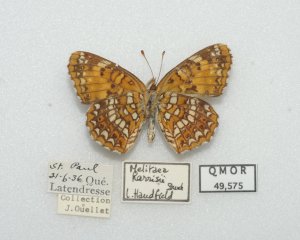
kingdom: Animalia
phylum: Arthropoda
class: Insecta
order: Lepidoptera
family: Nymphalidae
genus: Chlosyne
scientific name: Chlosyne harrisii
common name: Harris's Checkerspot
